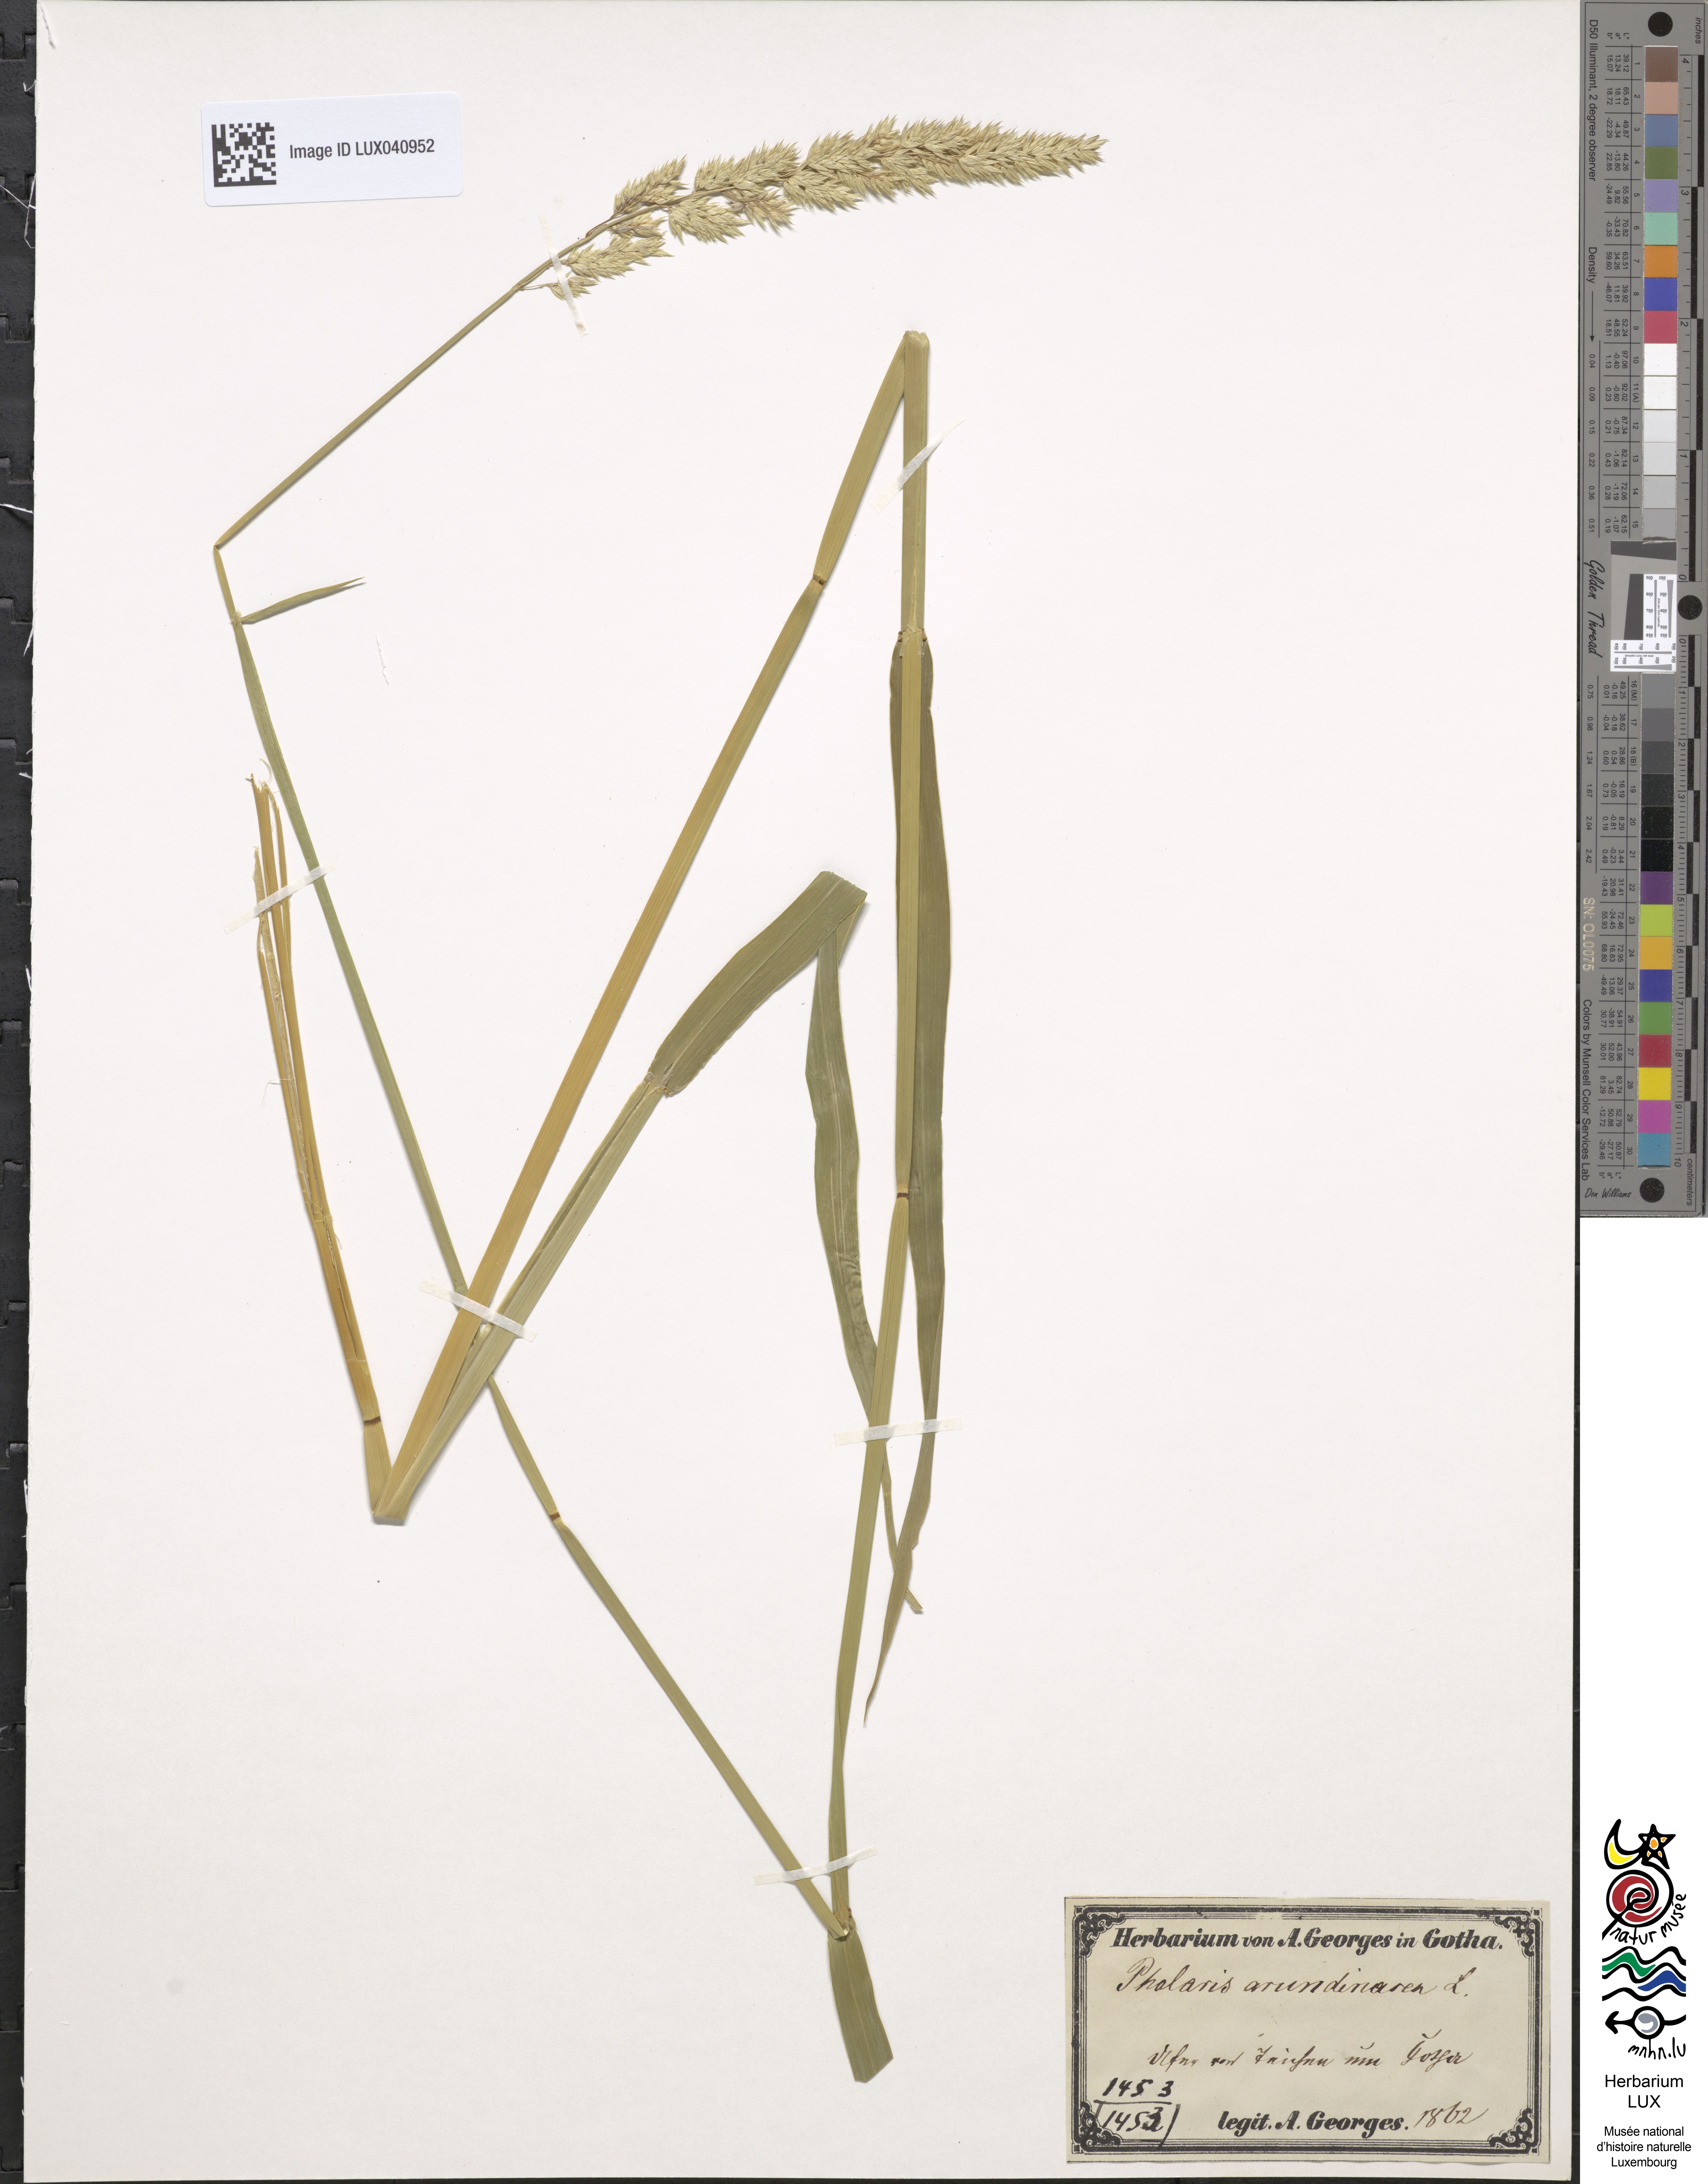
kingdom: Plantae
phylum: Tracheophyta
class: Liliopsida
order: Poales
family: Poaceae
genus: Phalaris
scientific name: Phalaris arundinacea
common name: Reed canary-grass
